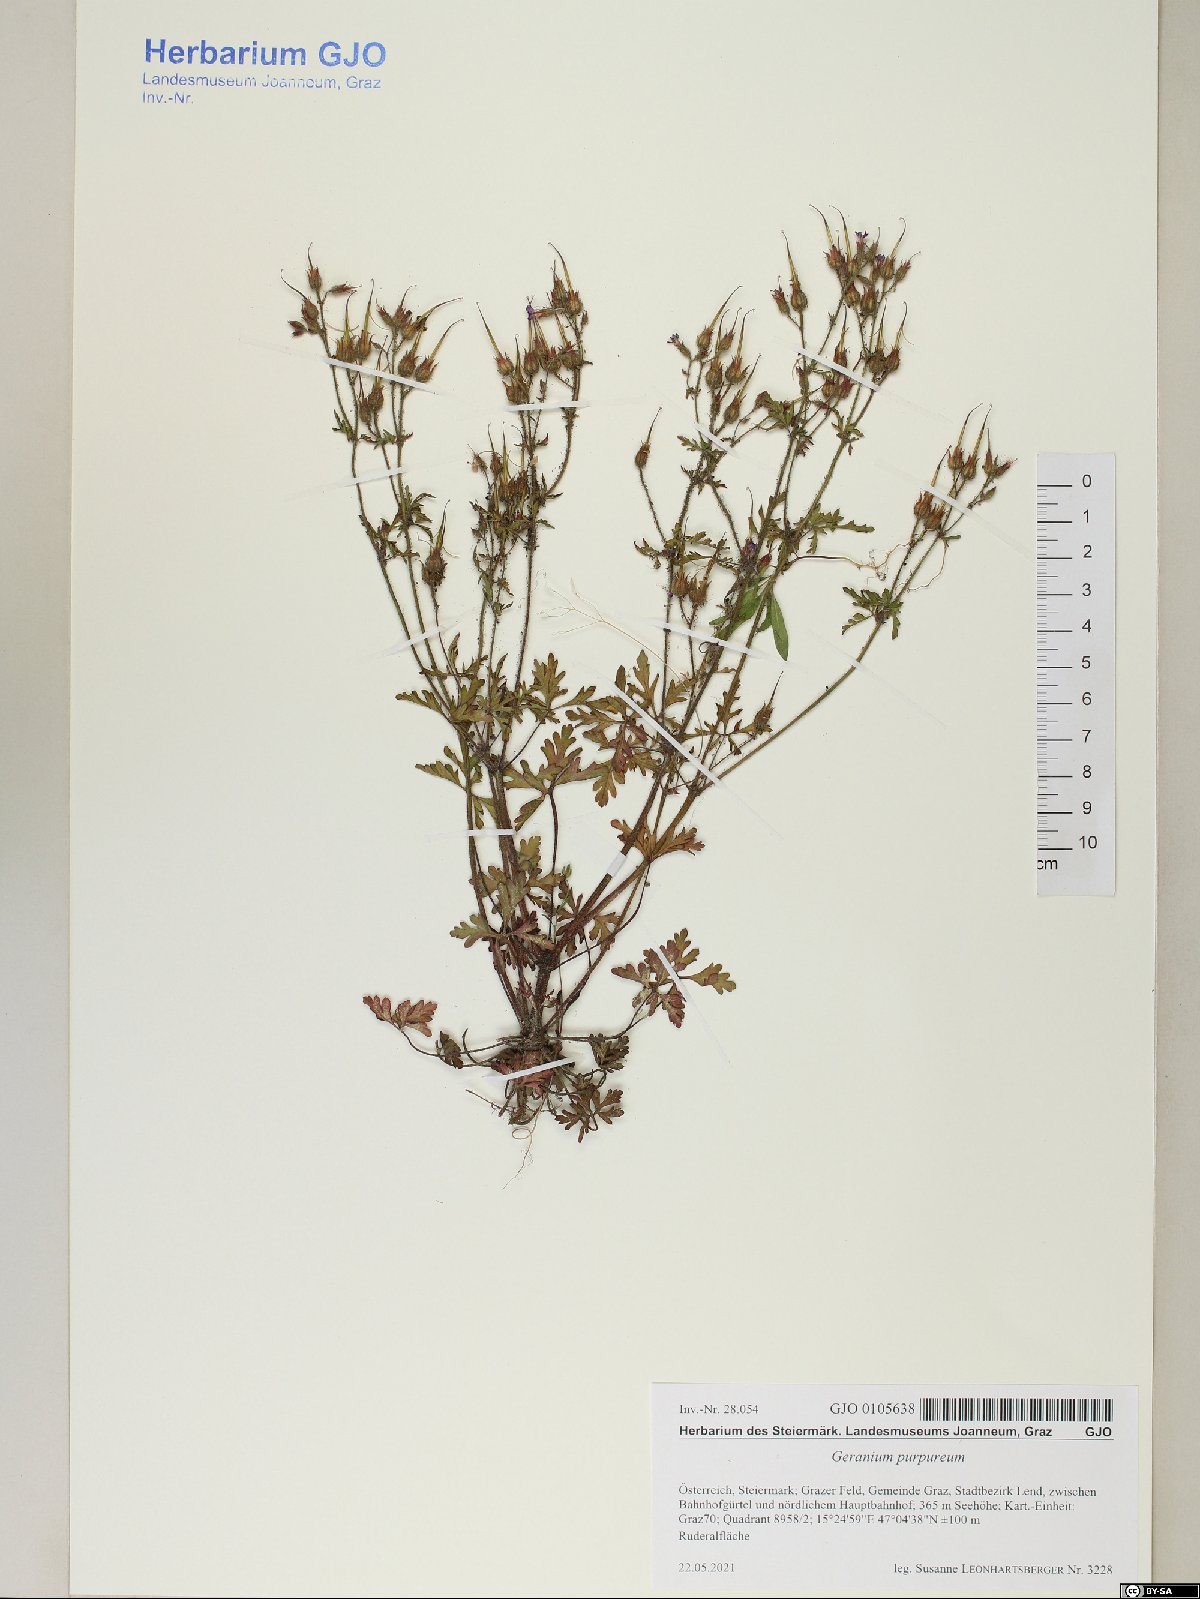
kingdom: Plantae
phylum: Tracheophyta
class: Magnoliopsida
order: Geraniales
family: Geraniaceae
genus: Geranium
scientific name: Geranium purpureum
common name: Little-robin
